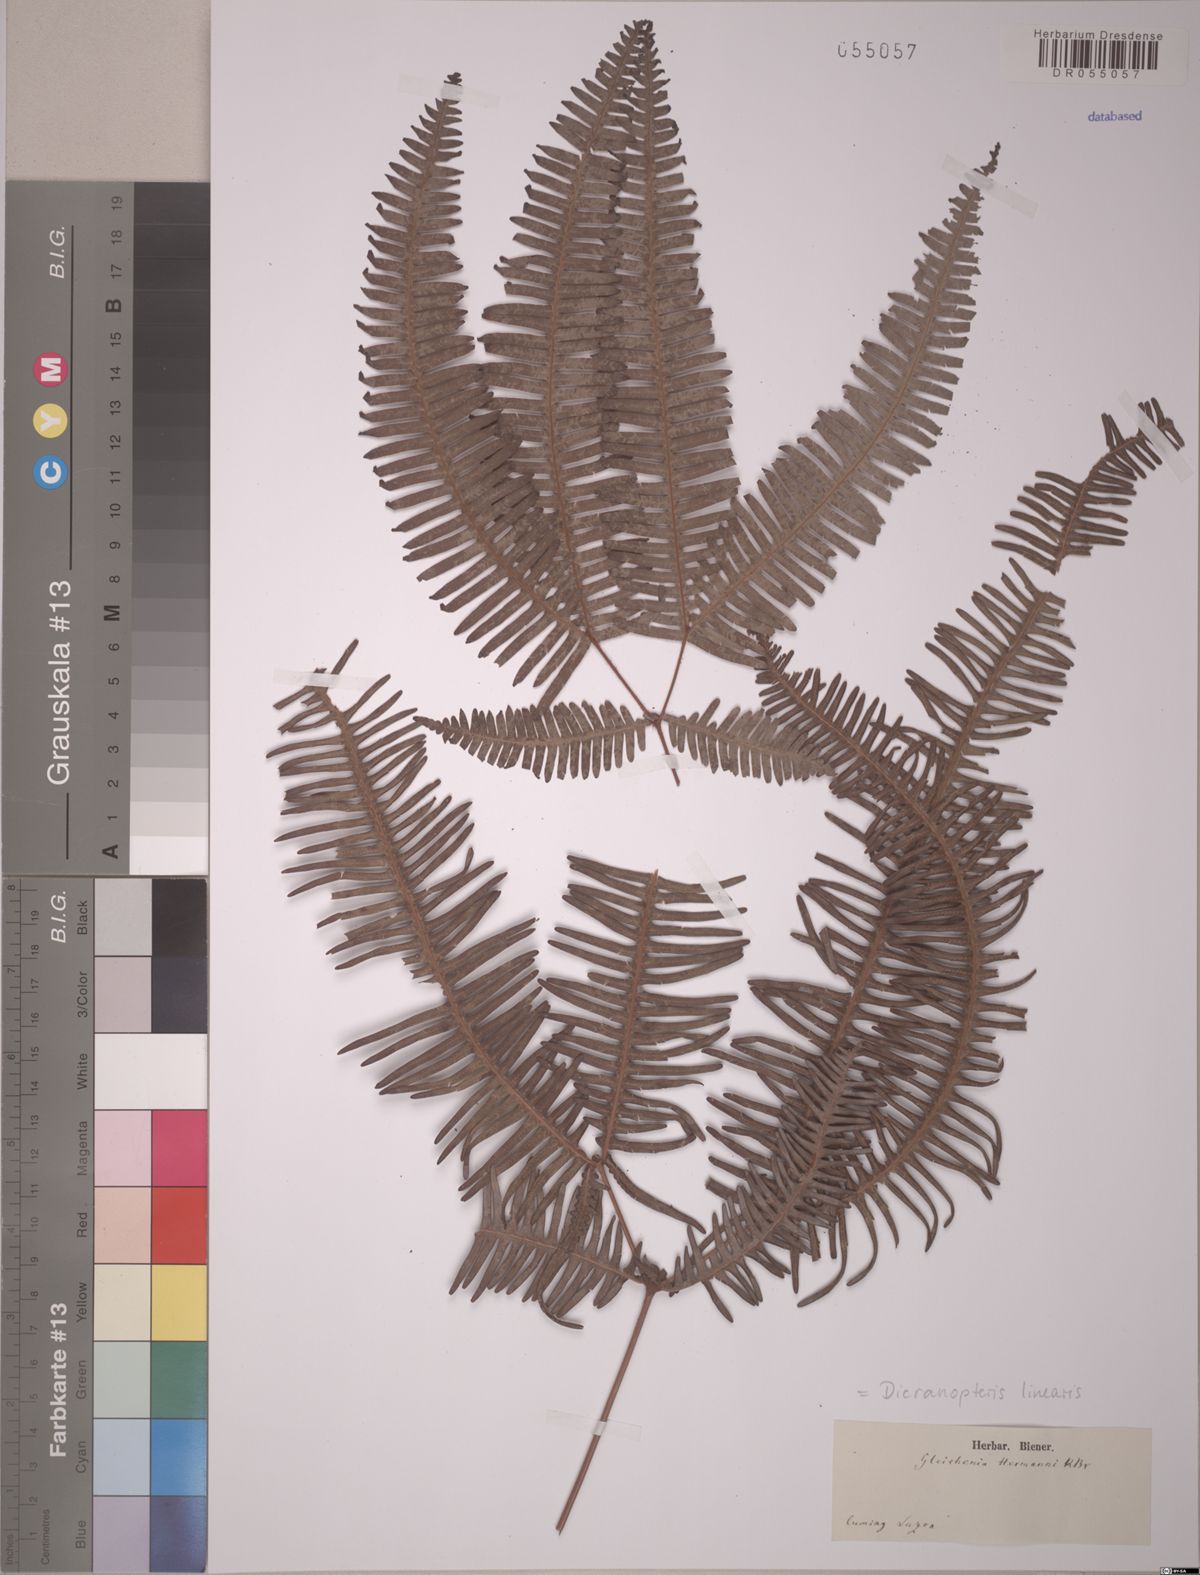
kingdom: Plantae
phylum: Tracheophyta
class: Polypodiopsida
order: Gleicheniales
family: Gleicheniaceae
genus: Dicranopteris
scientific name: Dicranopteris linearis
